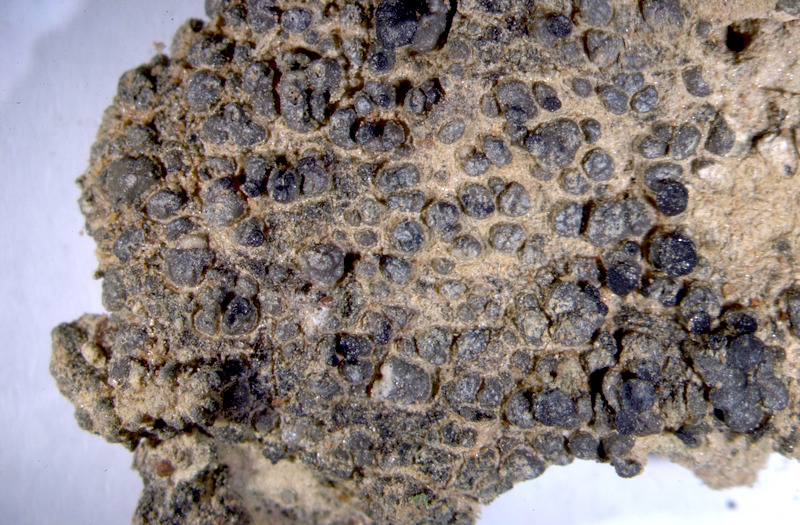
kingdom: Fungi
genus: Lichenicolous
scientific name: Lichenicolous fungus
